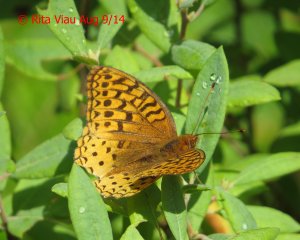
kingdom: Animalia
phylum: Arthropoda
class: Insecta
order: Lepidoptera
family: Nymphalidae
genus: Speyeria
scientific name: Speyeria cybele
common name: Great Spangled Fritillary
